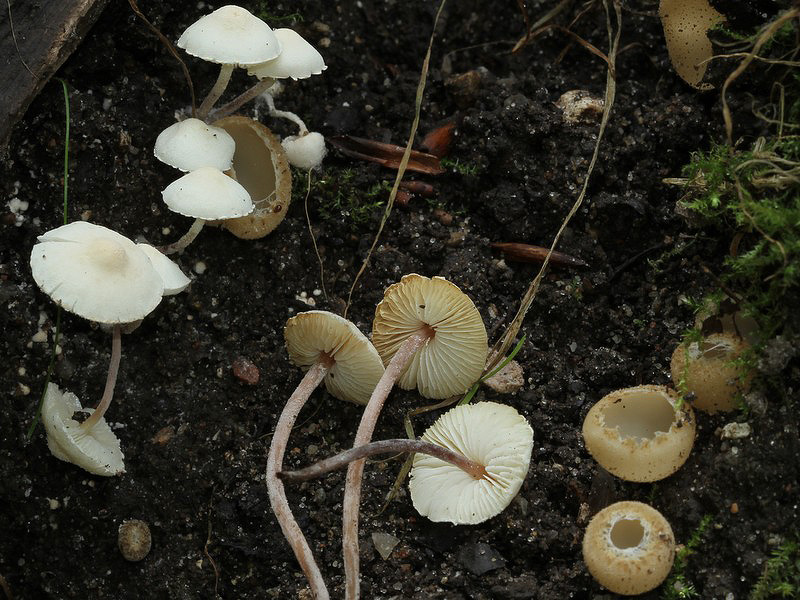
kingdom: Fungi
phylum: Basidiomycota
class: Agaricomycetes
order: Agaricales
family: Agaricaceae
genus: Cystolepiota
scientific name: Cystolepiota seminuda
